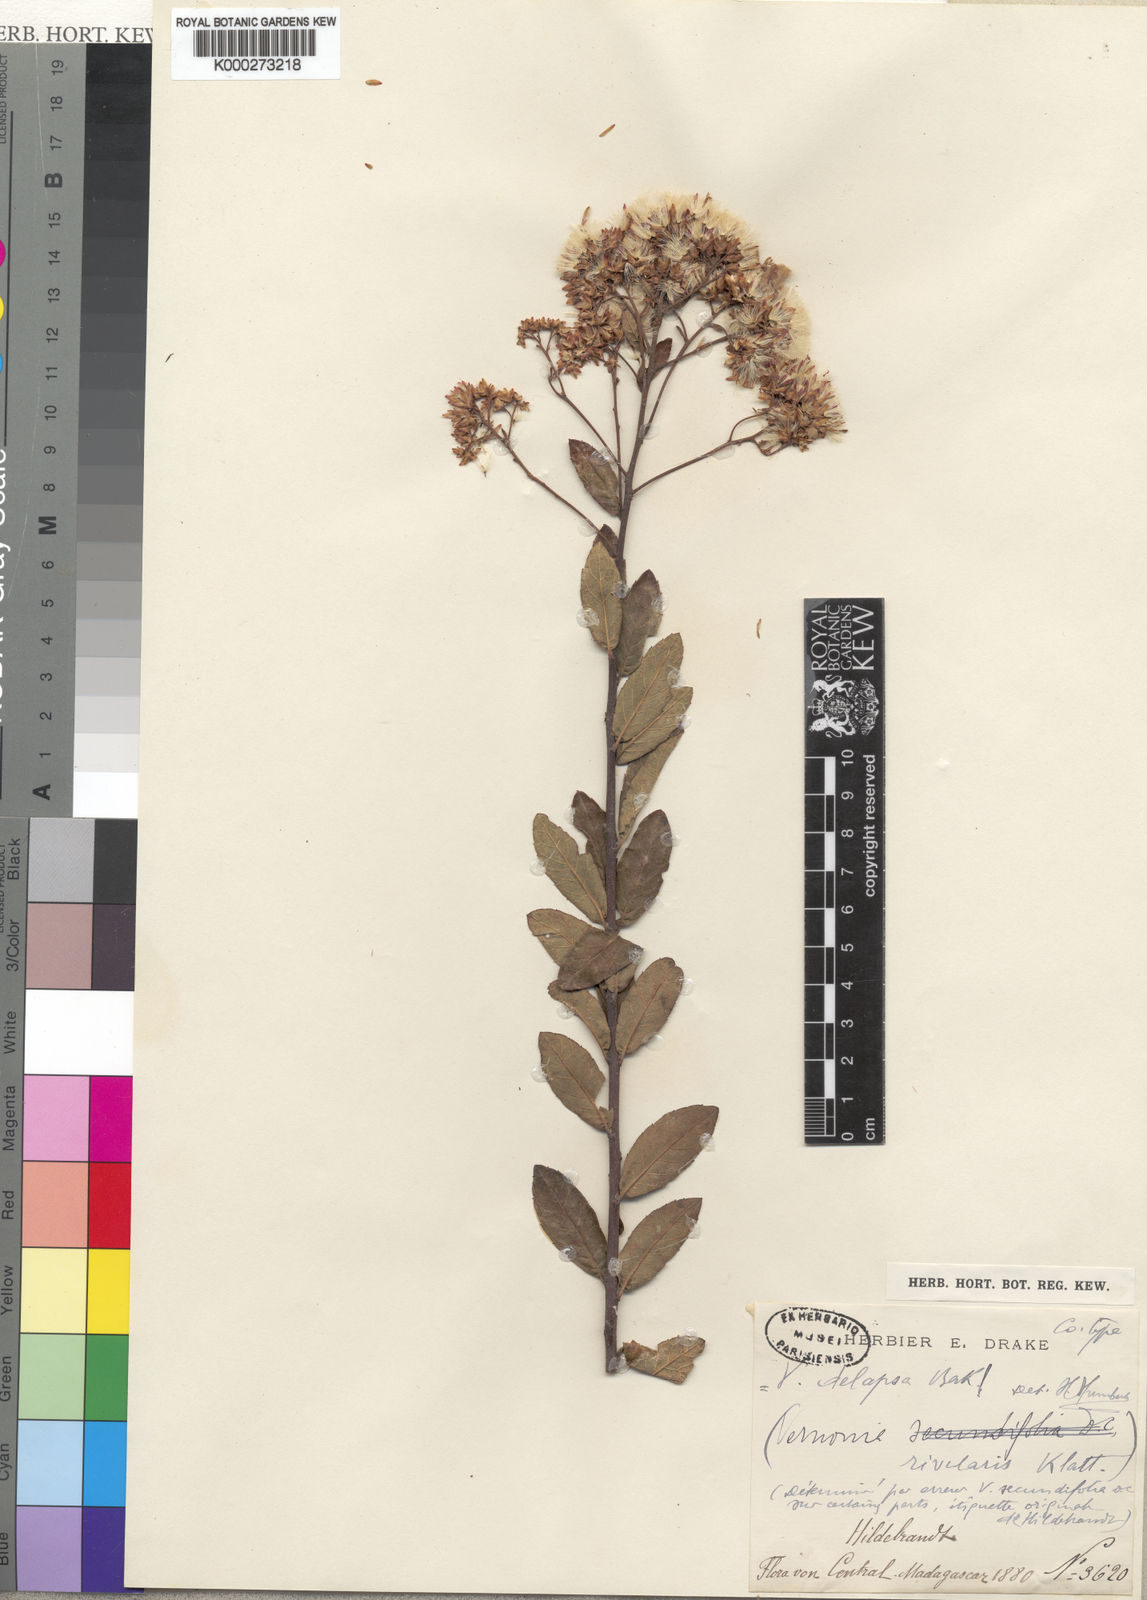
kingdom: Plantae
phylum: Tracheophyta
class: Magnoliopsida
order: Asterales
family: Asteraceae
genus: Vernonia
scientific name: Vernonia delapsa
